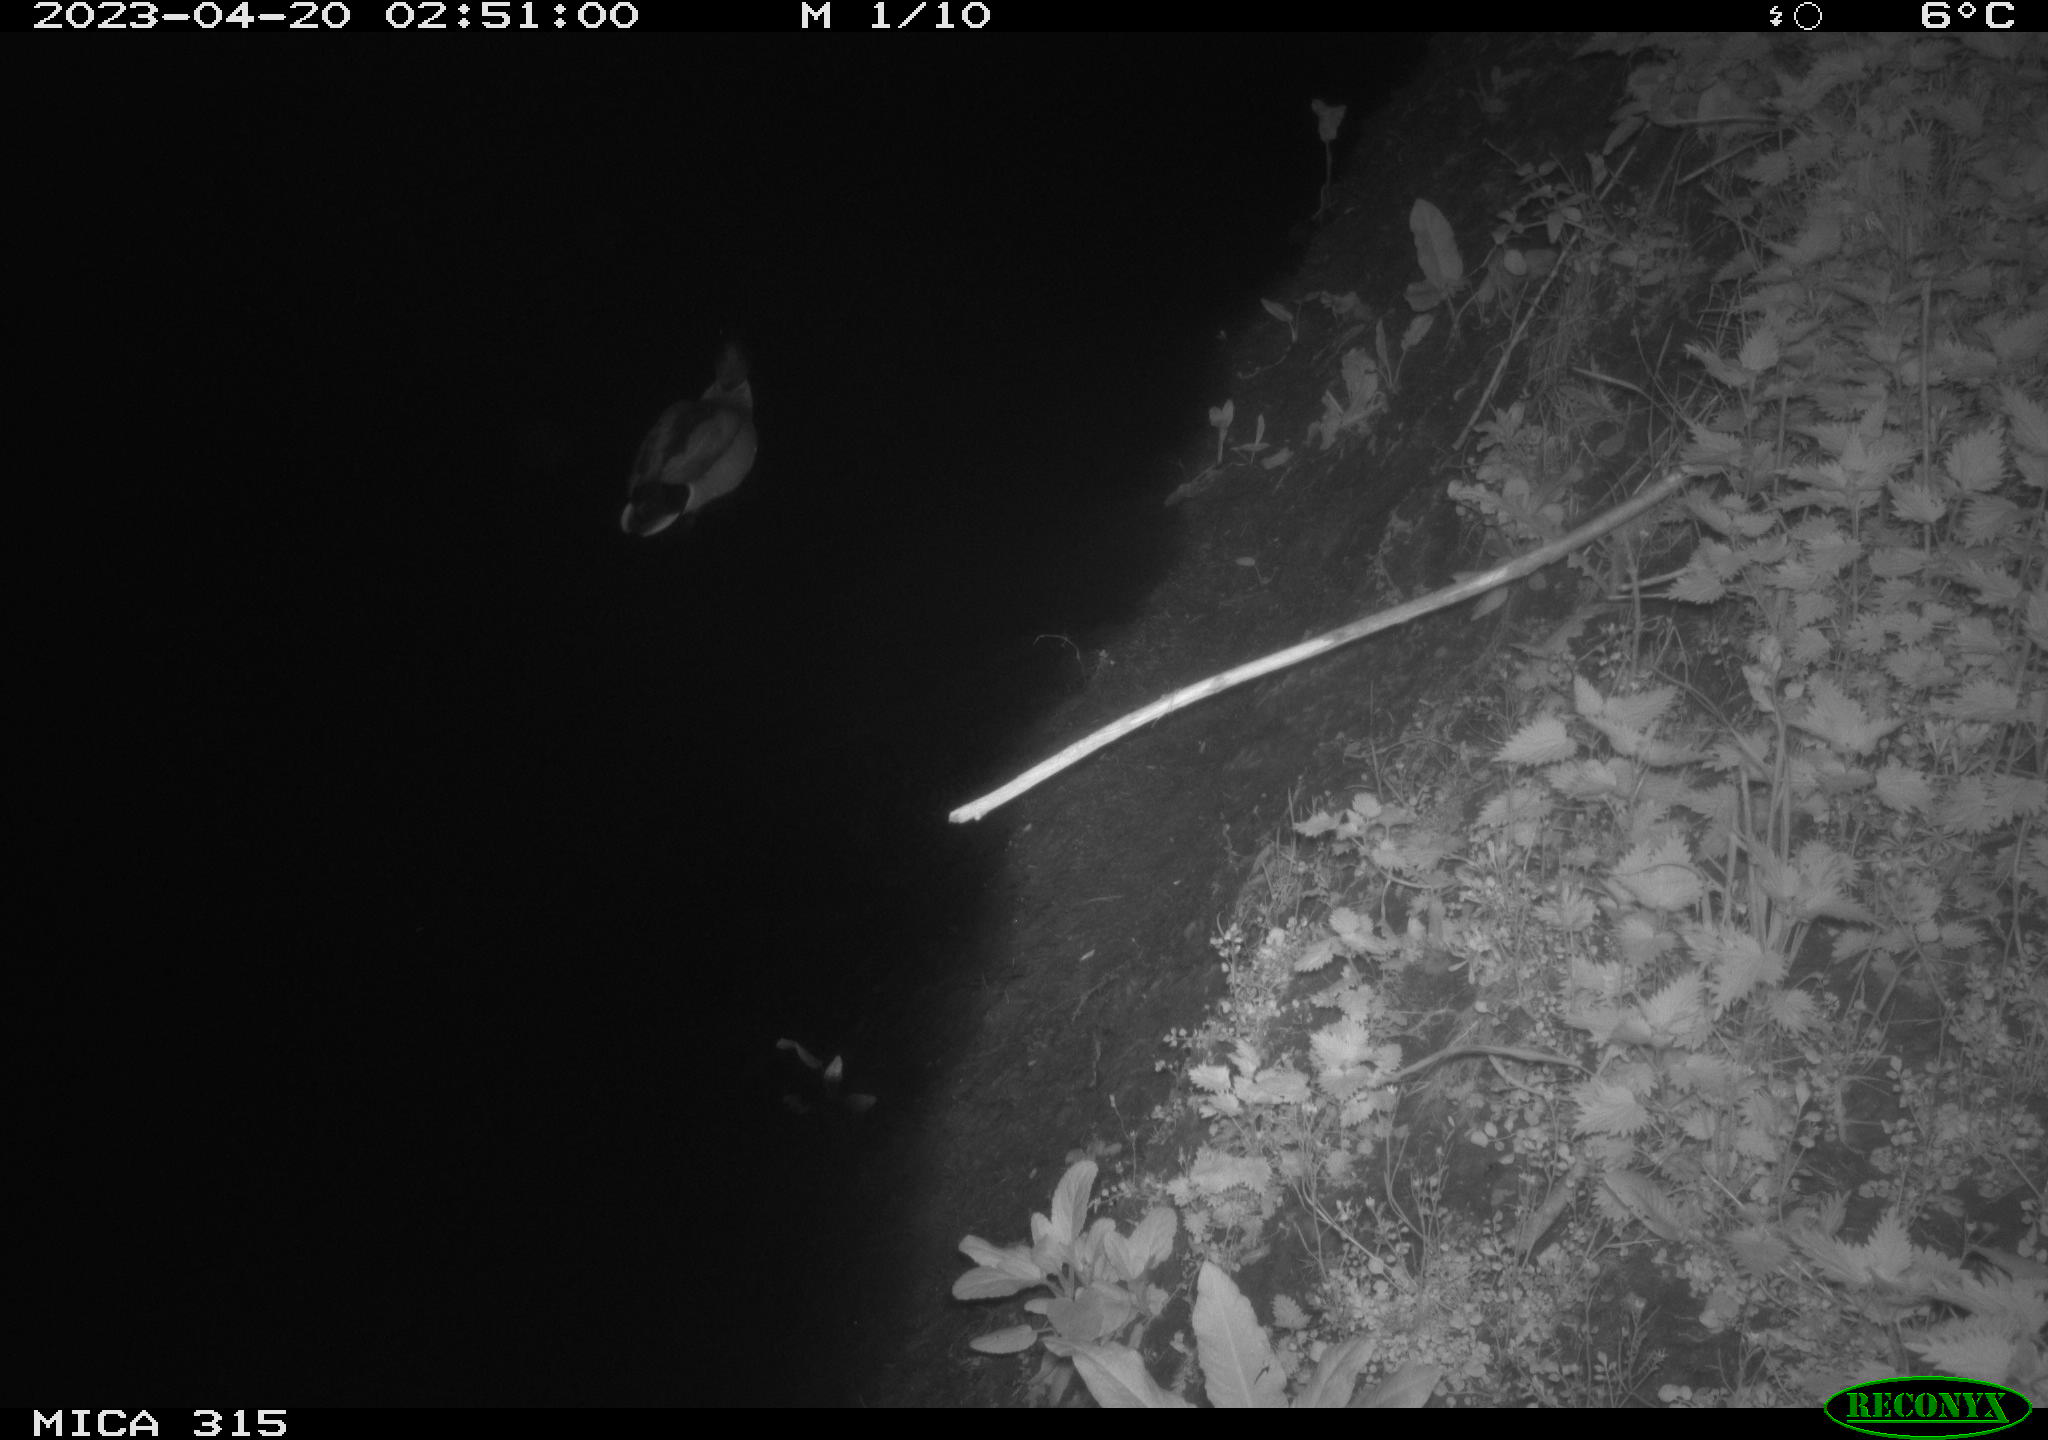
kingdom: Animalia
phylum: Chordata
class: Aves
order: Anseriformes
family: Anatidae
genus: Anas
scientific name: Anas
